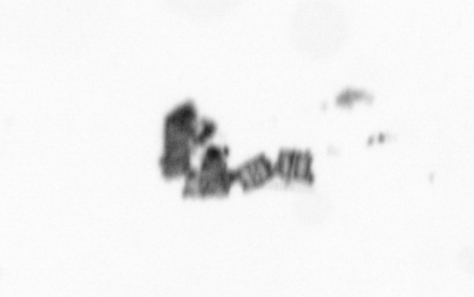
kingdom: Chromista
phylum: Ochrophyta
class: Bacillariophyceae
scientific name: Bacillariophyceae
